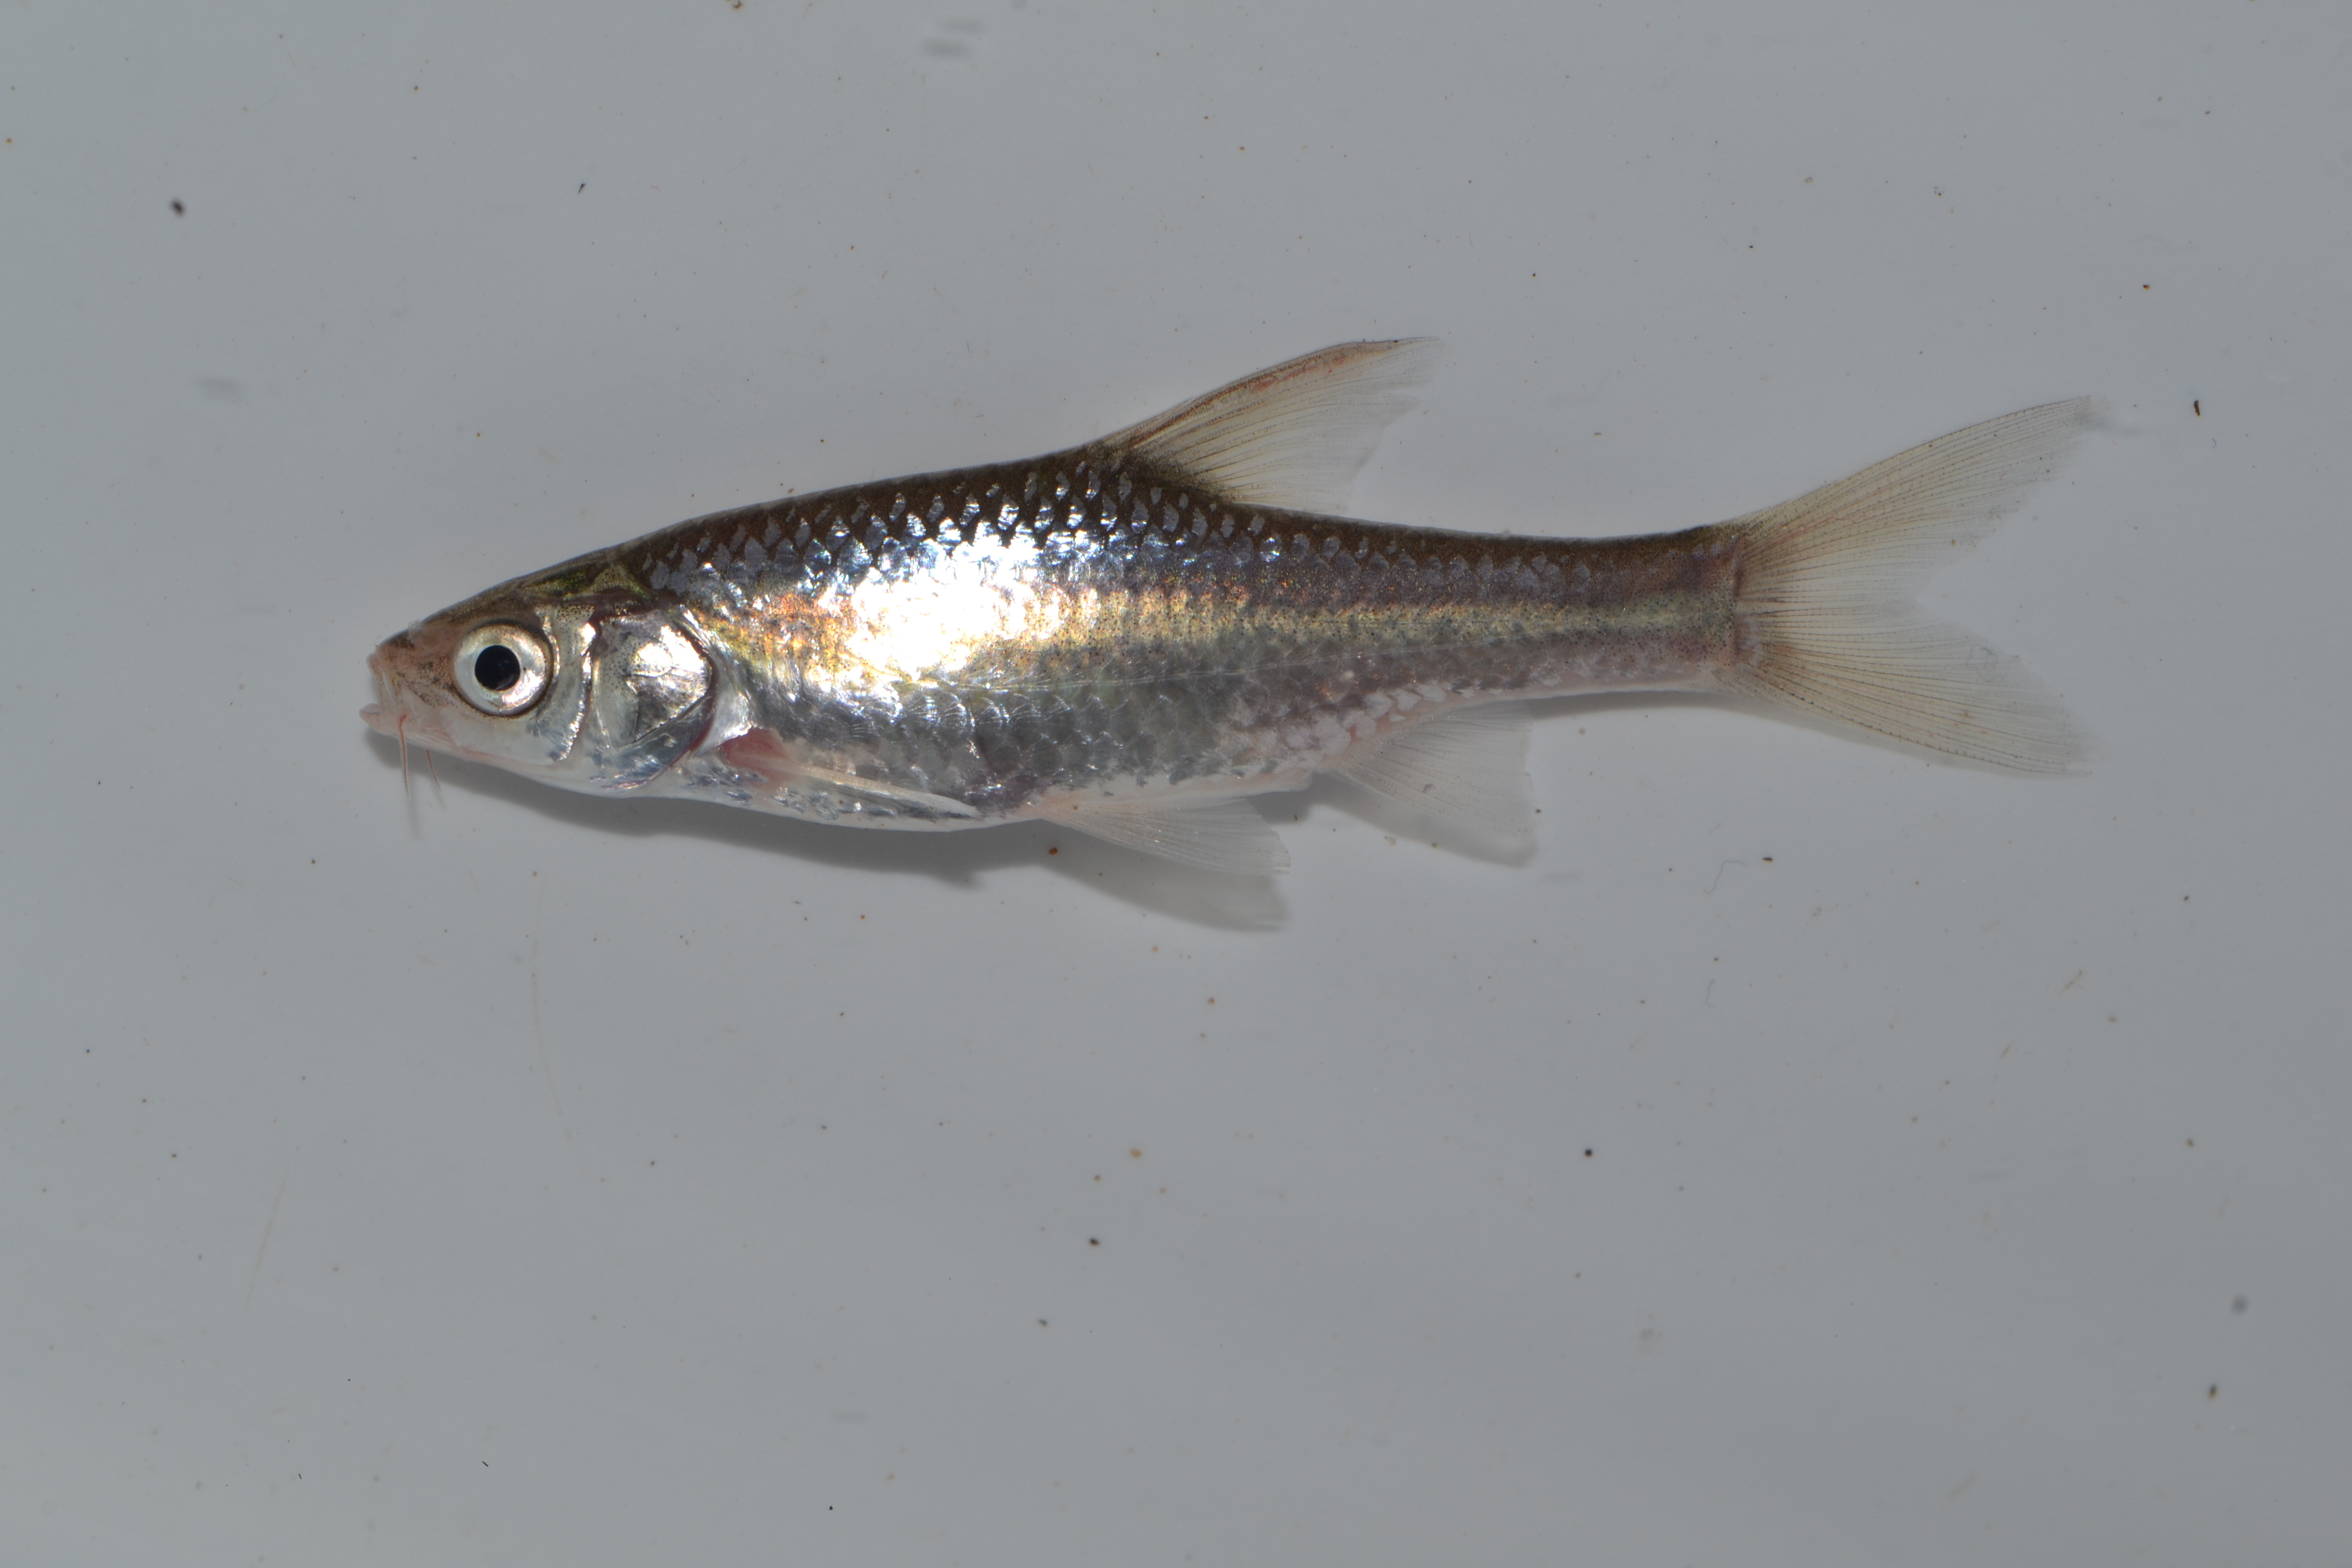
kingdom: Animalia
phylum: Chordata
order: Cypriniformes
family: Cyprinidae
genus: Enteromius
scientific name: Enteromius paludinosus
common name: Straightfin barb
